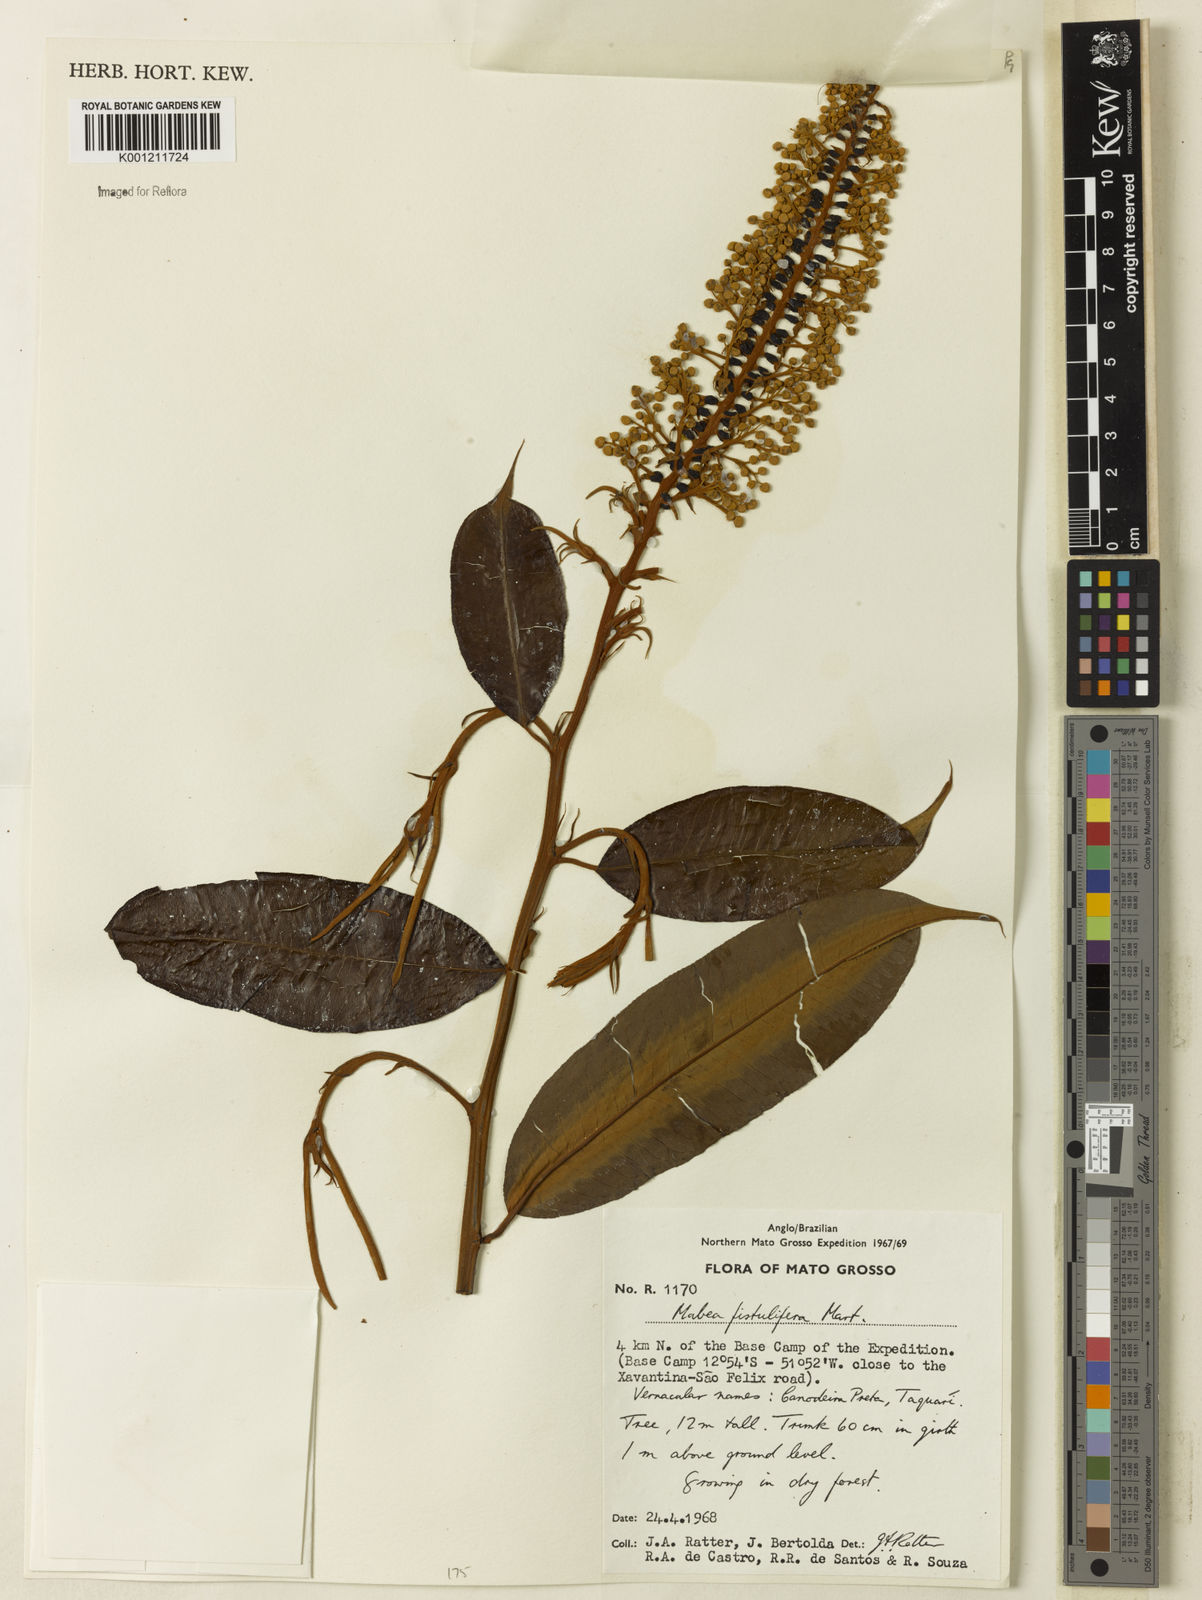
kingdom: Plantae
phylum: Tracheophyta
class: Magnoliopsida
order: Malpighiales
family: Euphorbiaceae
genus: Mabea
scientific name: Mabea fistulifera
